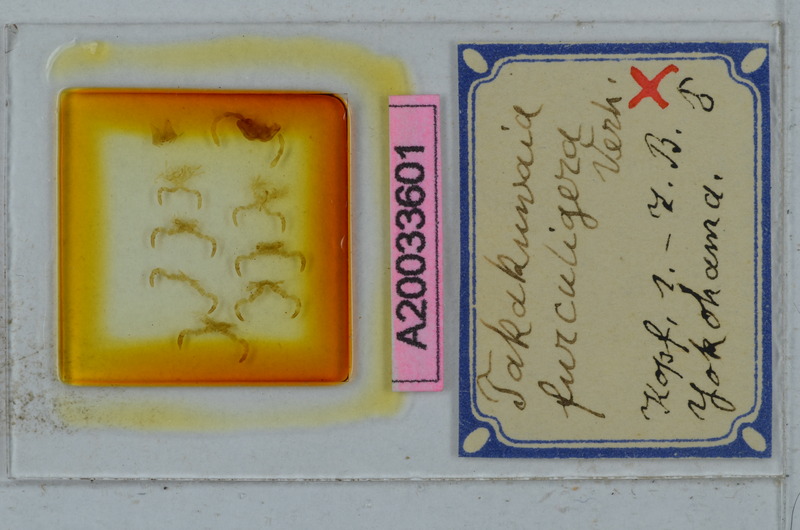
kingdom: Animalia
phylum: Arthropoda
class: Diplopoda
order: Polydesmida
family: Xystodesmidae
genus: Xystodesmus
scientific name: Xystodesmus martensii
